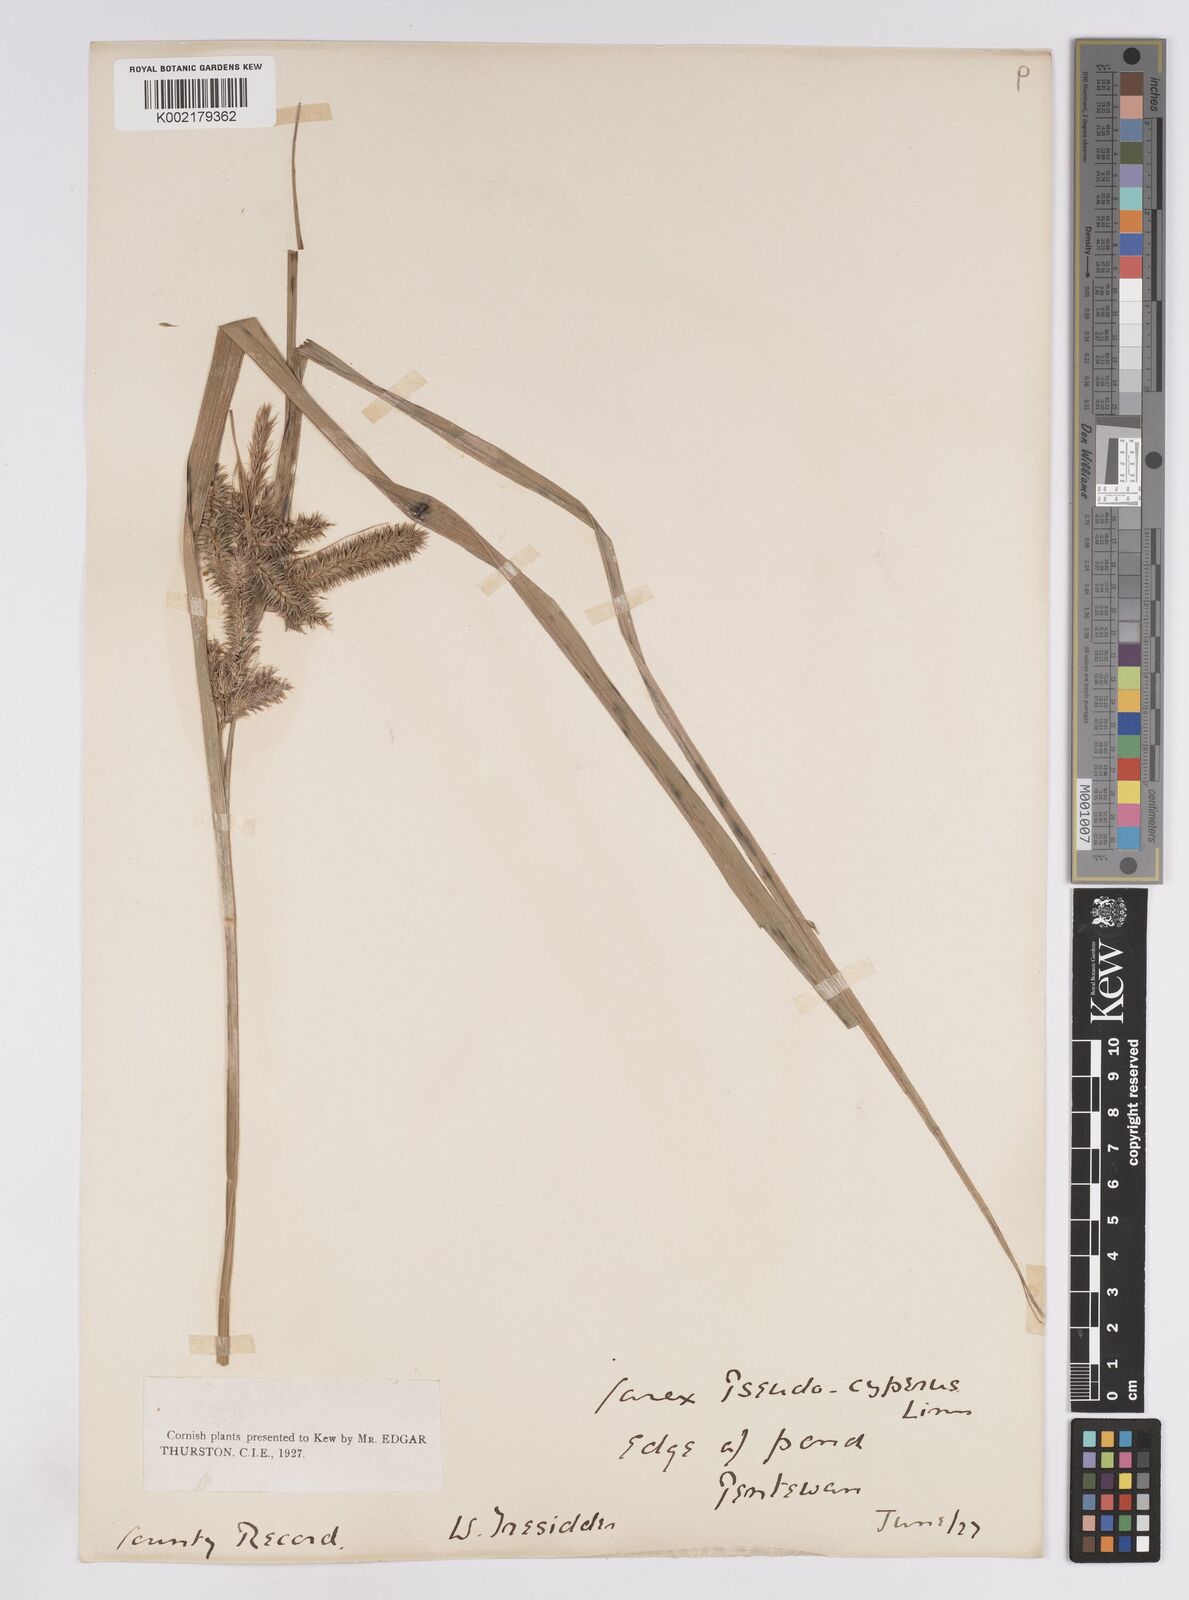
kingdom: Plantae
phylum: Tracheophyta
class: Liliopsida
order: Poales
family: Cyperaceae
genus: Carex
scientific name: Carex pseudocyperus
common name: Cyperus sedge
